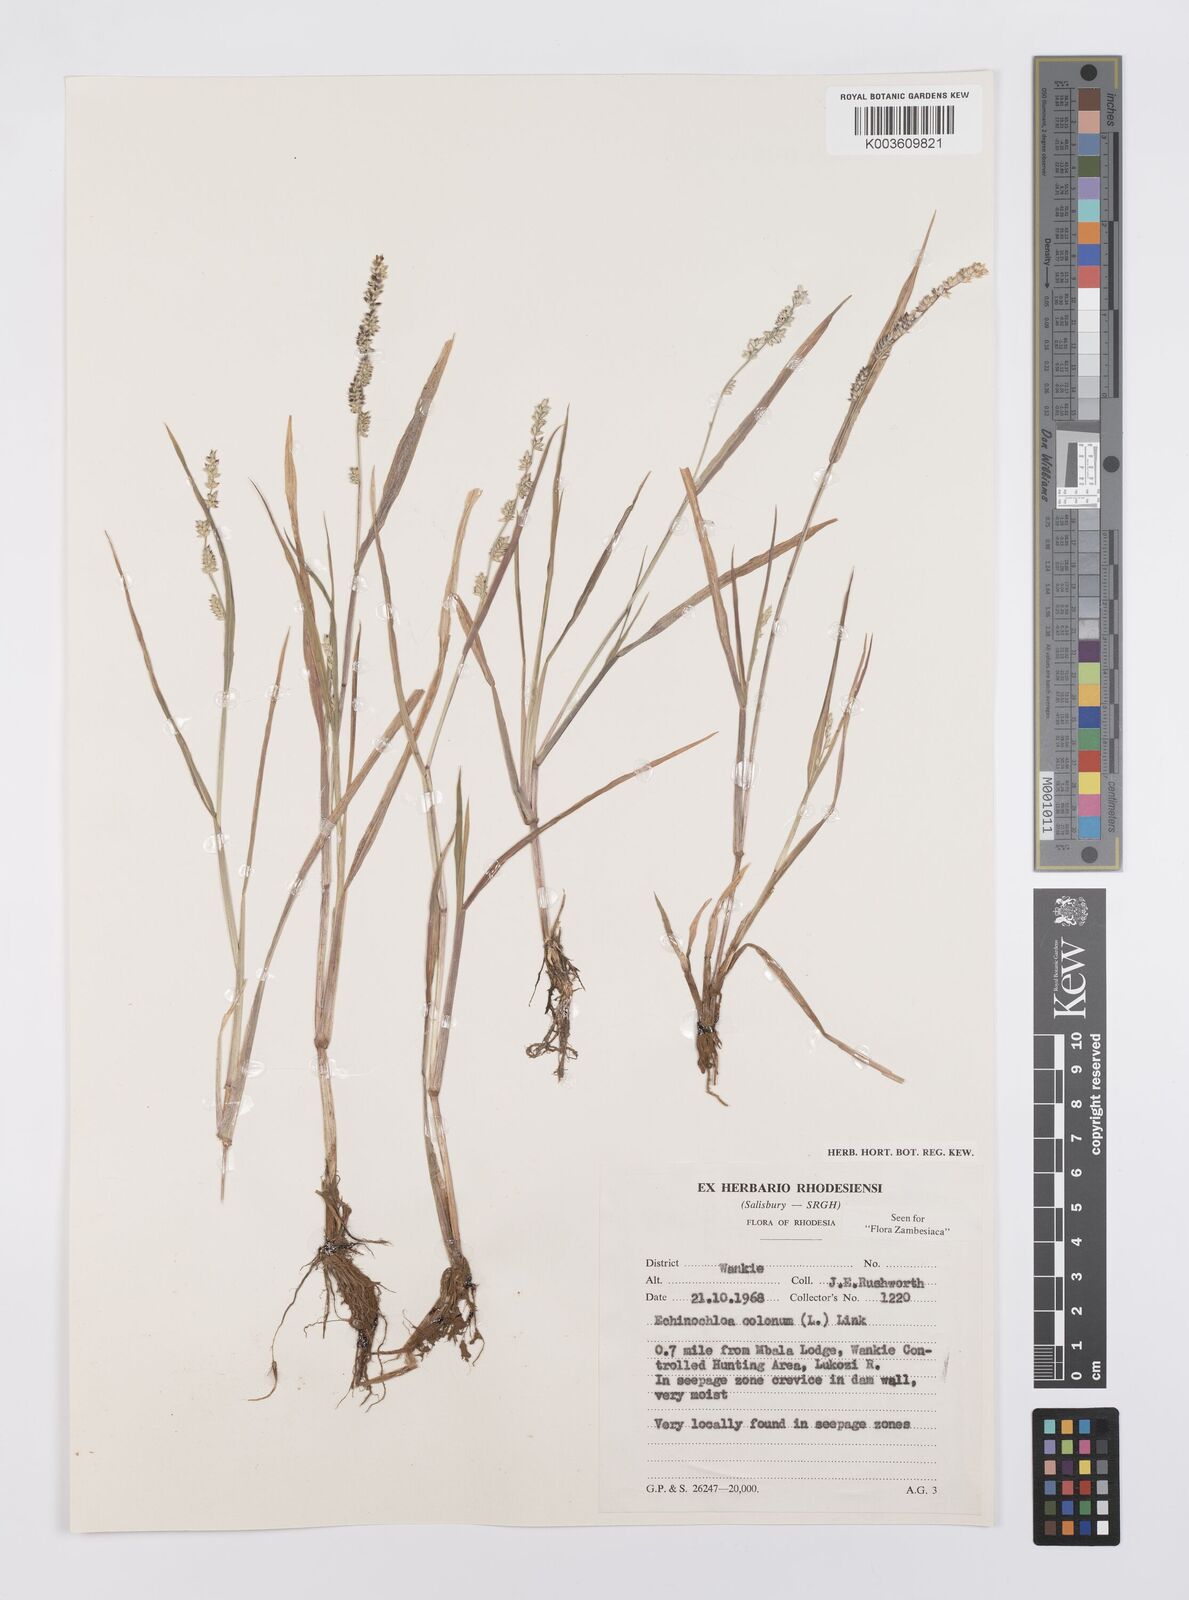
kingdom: Plantae
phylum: Tracheophyta
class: Liliopsida
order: Poales
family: Poaceae
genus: Echinochloa
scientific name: Echinochloa colonum
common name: Jungle rice
